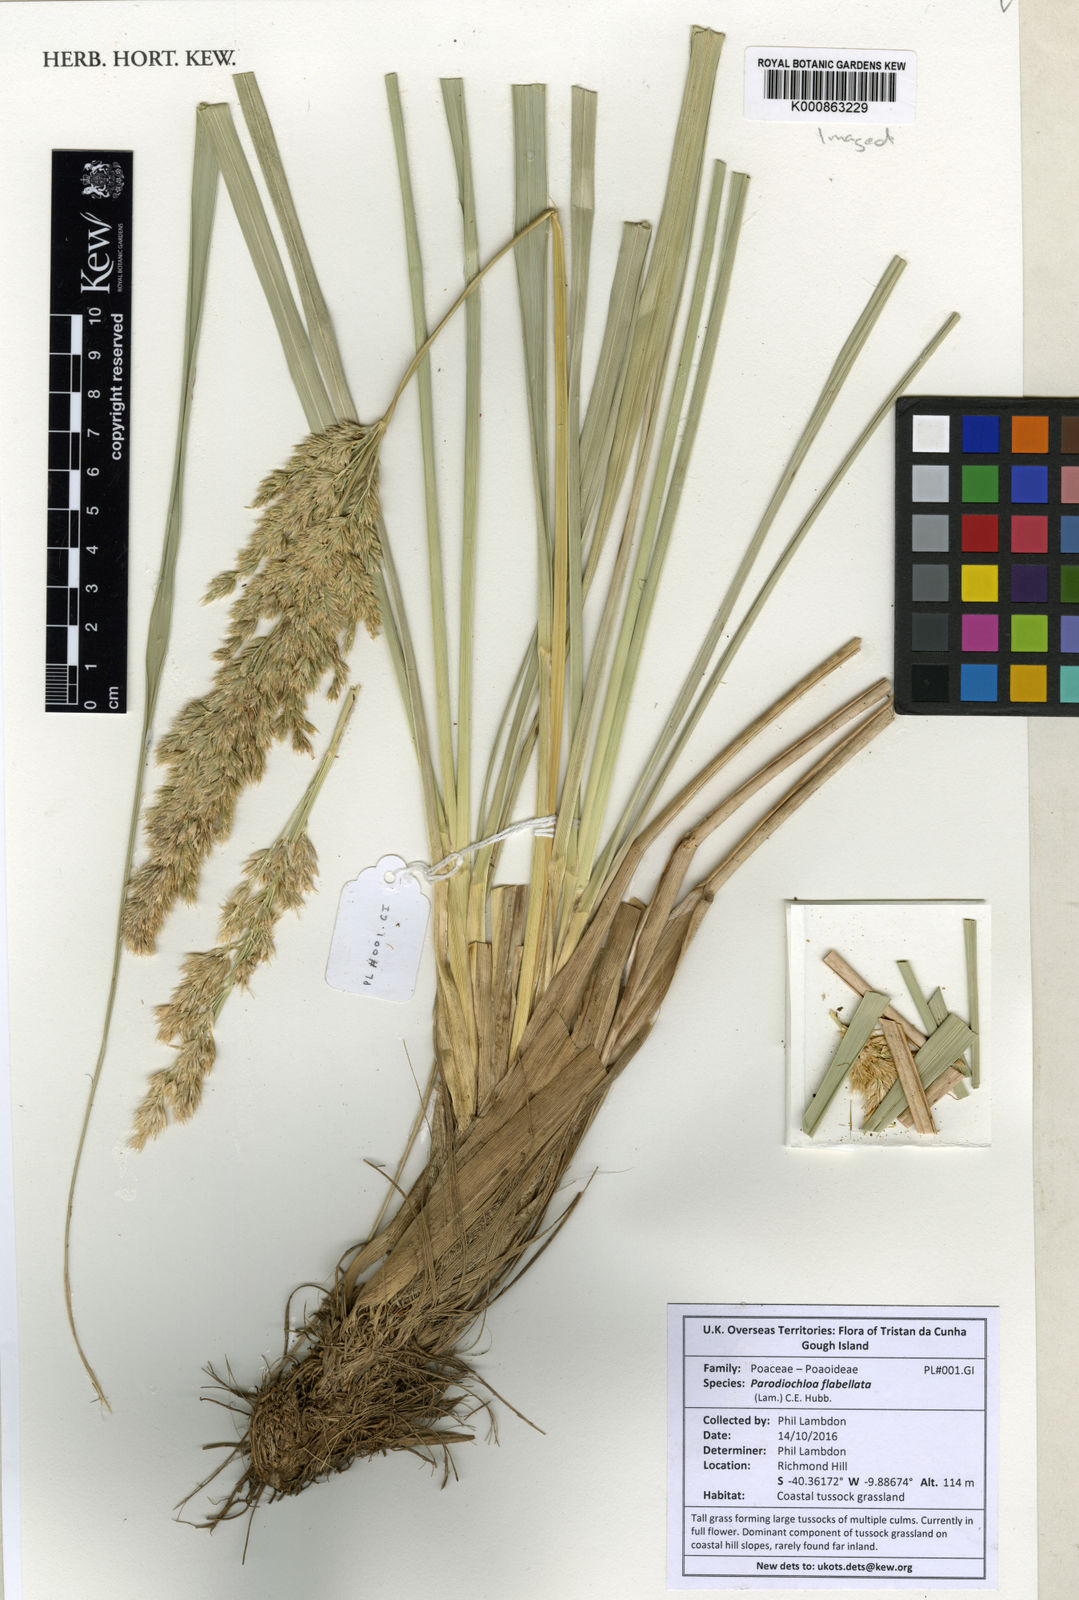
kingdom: Plantae
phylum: Tracheophyta
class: Liliopsida
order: Poales
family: Poaceae
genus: Poa
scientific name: Poa flabellata
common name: Tussac-grass
